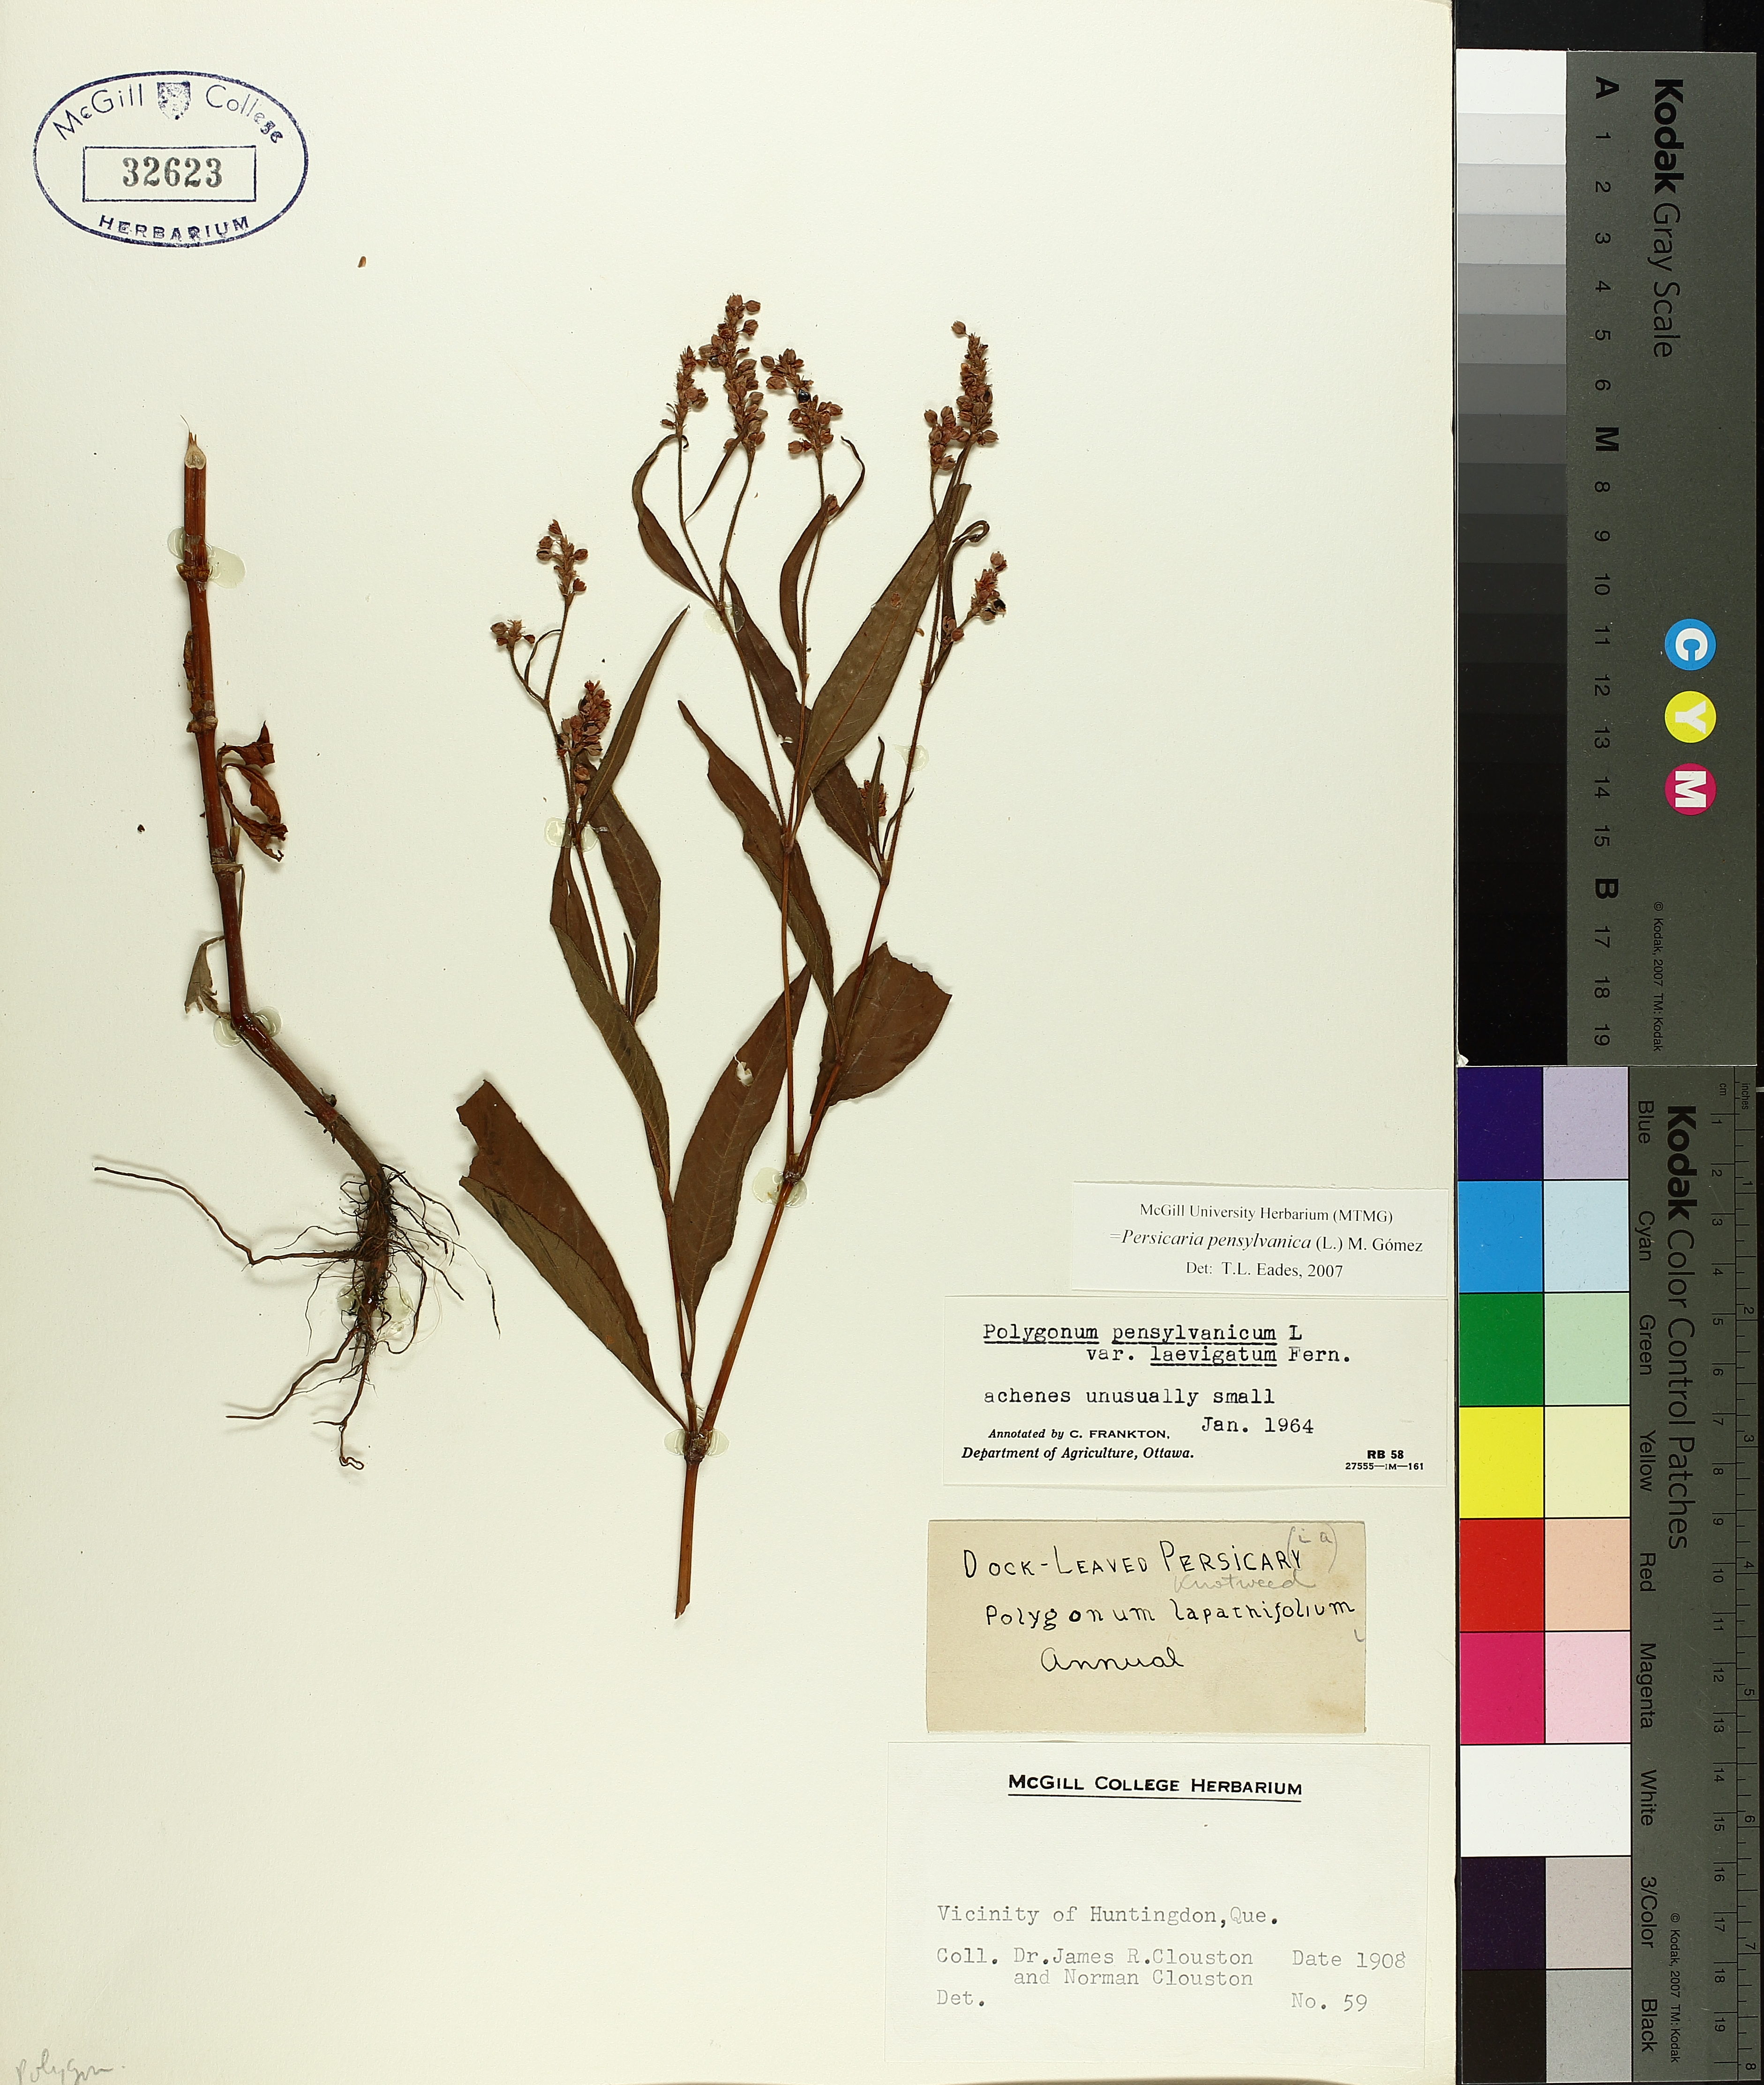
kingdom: Plantae
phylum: Tracheophyta
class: Magnoliopsida
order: Caryophyllales
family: Polygonaceae
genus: Persicaria
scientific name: Persicaria pensylvanica
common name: Pinkweed
